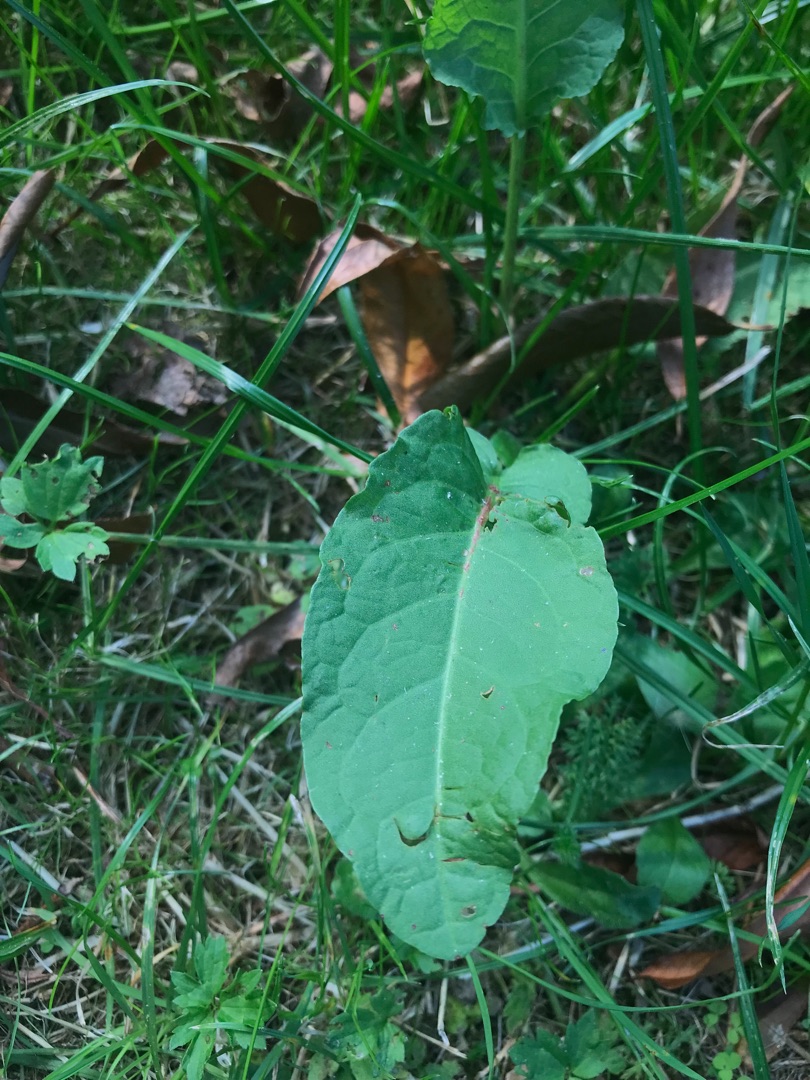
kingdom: Plantae
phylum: Tracheophyta
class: Magnoliopsida
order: Caryophyllales
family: Polygonaceae
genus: Rumex
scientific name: Rumex obtusifolius
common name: Butbladet skræppe
